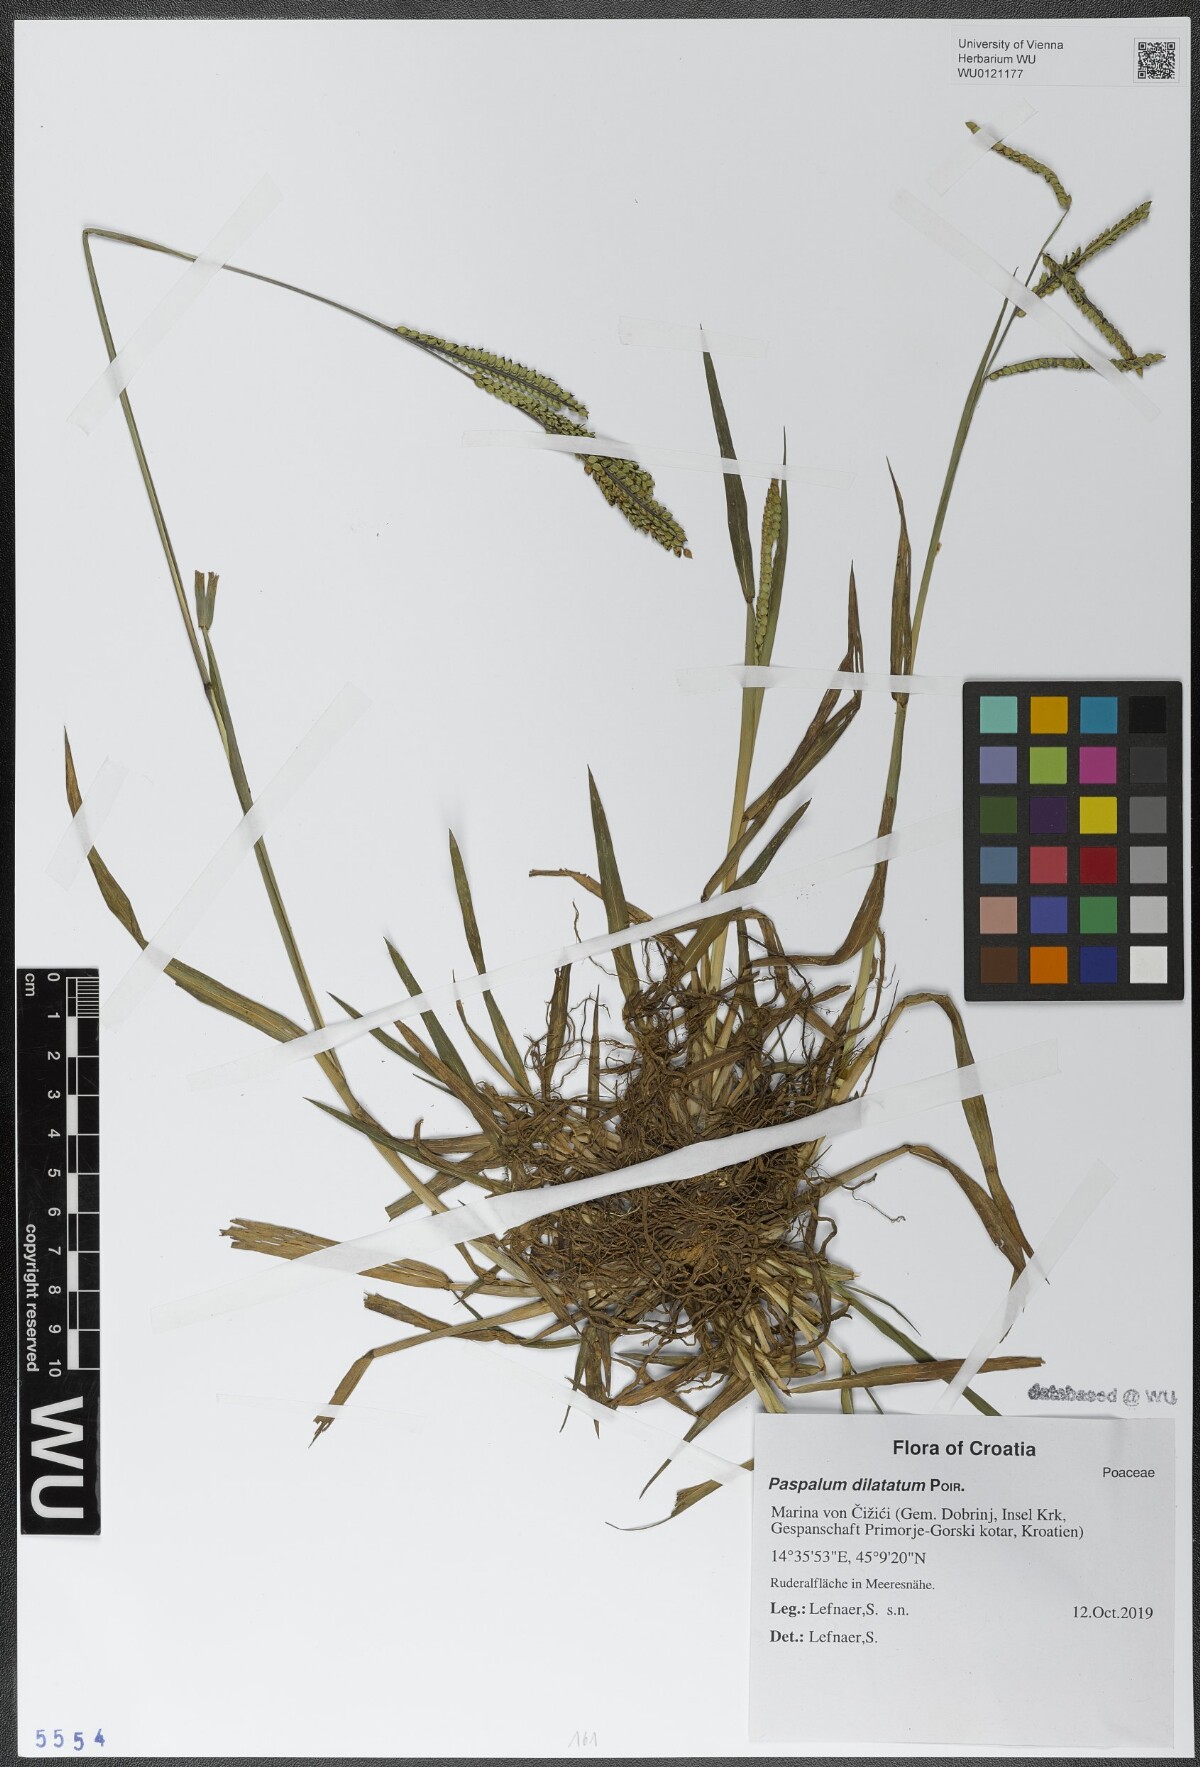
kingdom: Plantae
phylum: Tracheophyta
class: Liliopsida
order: Poales
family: Poaceae
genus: Paspalum
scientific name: Paspalum dilatatum
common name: Dallisgrass
